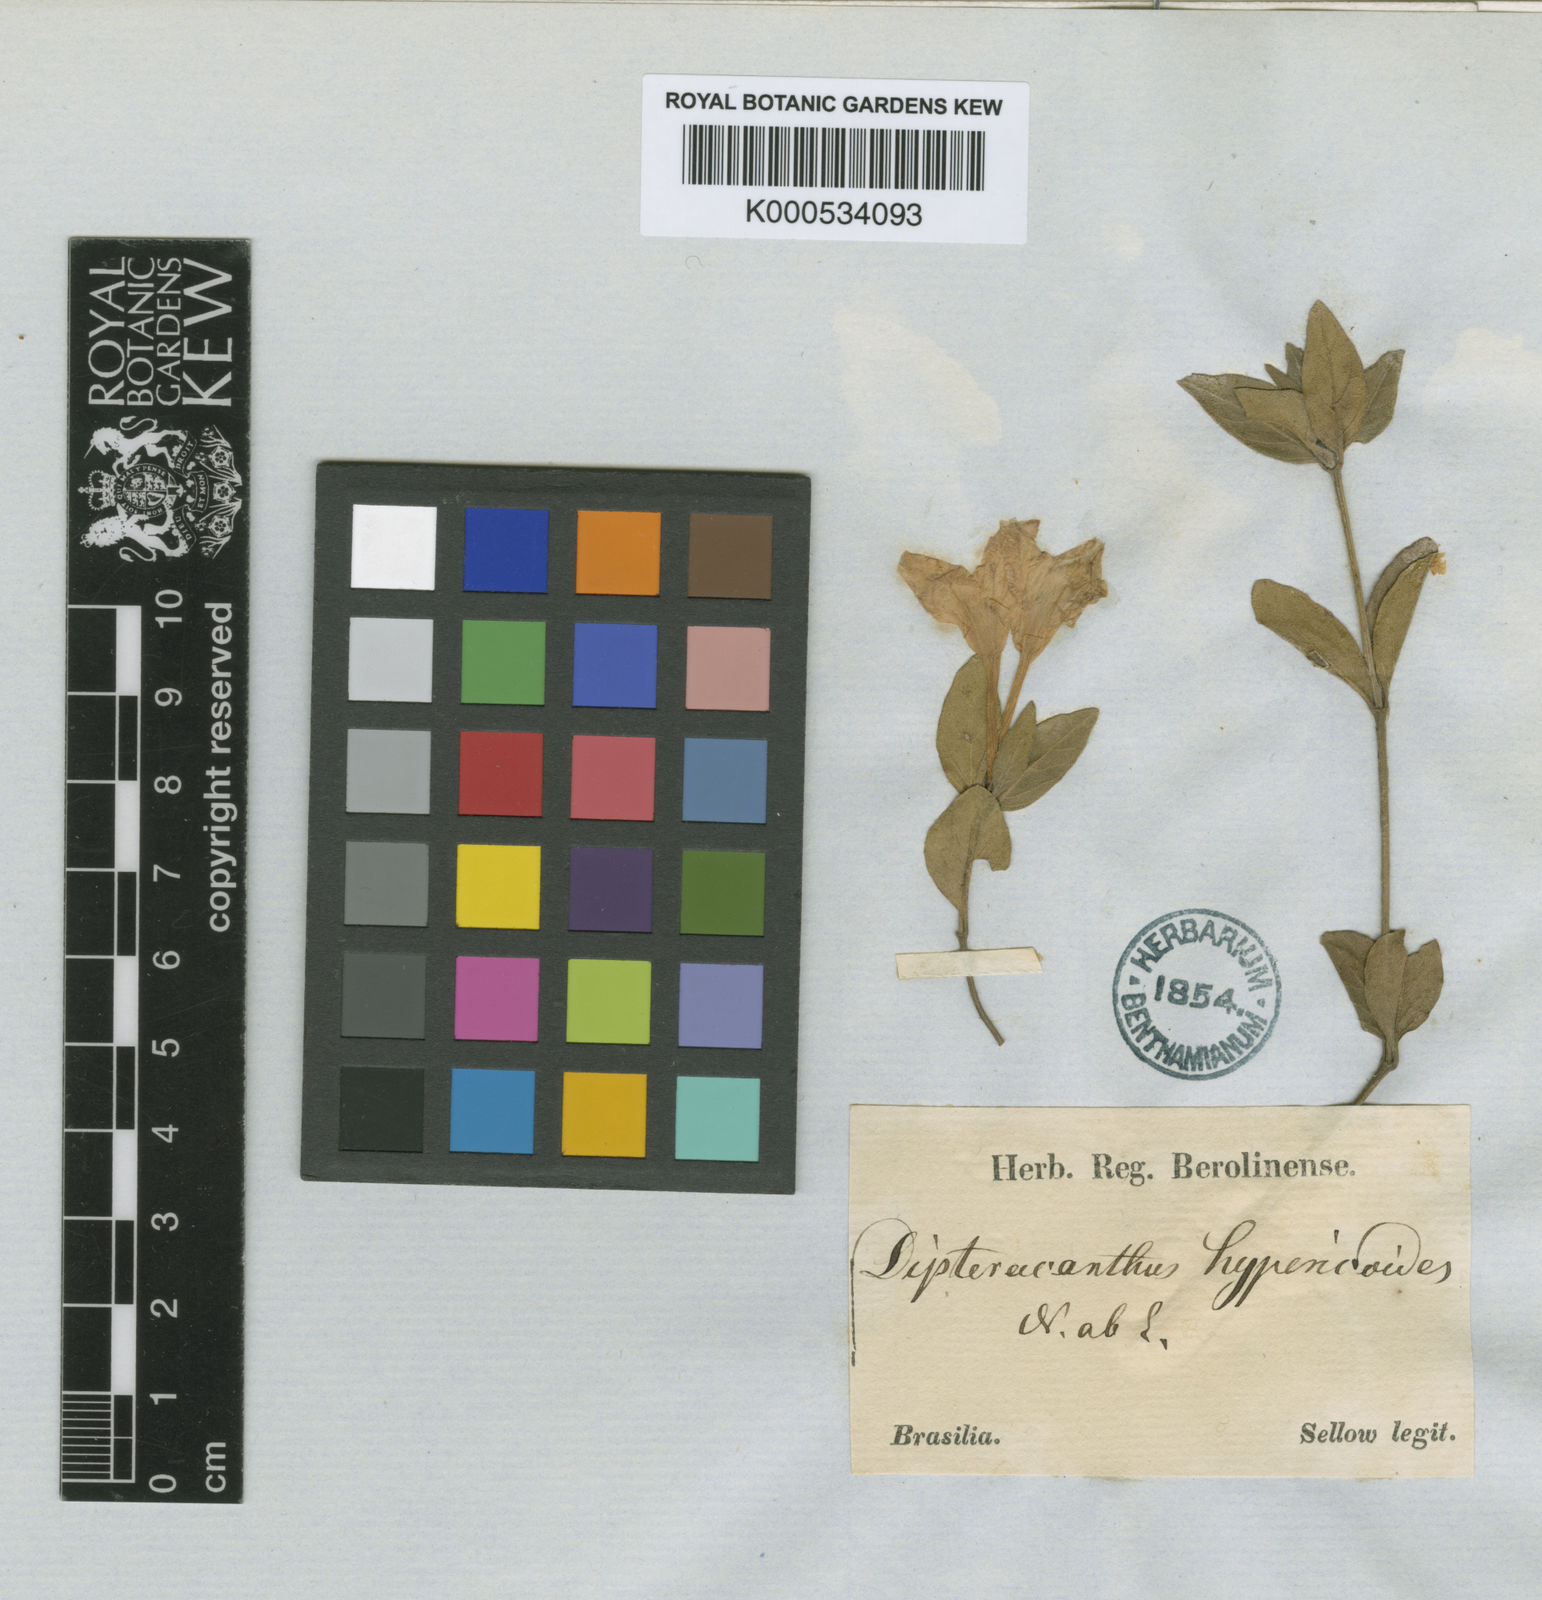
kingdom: Plantae
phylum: Tracheophyta
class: Magnoliopsida
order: Lamiales
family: Acanthaceae
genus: Ruellia
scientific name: Ruellia hypericoides
